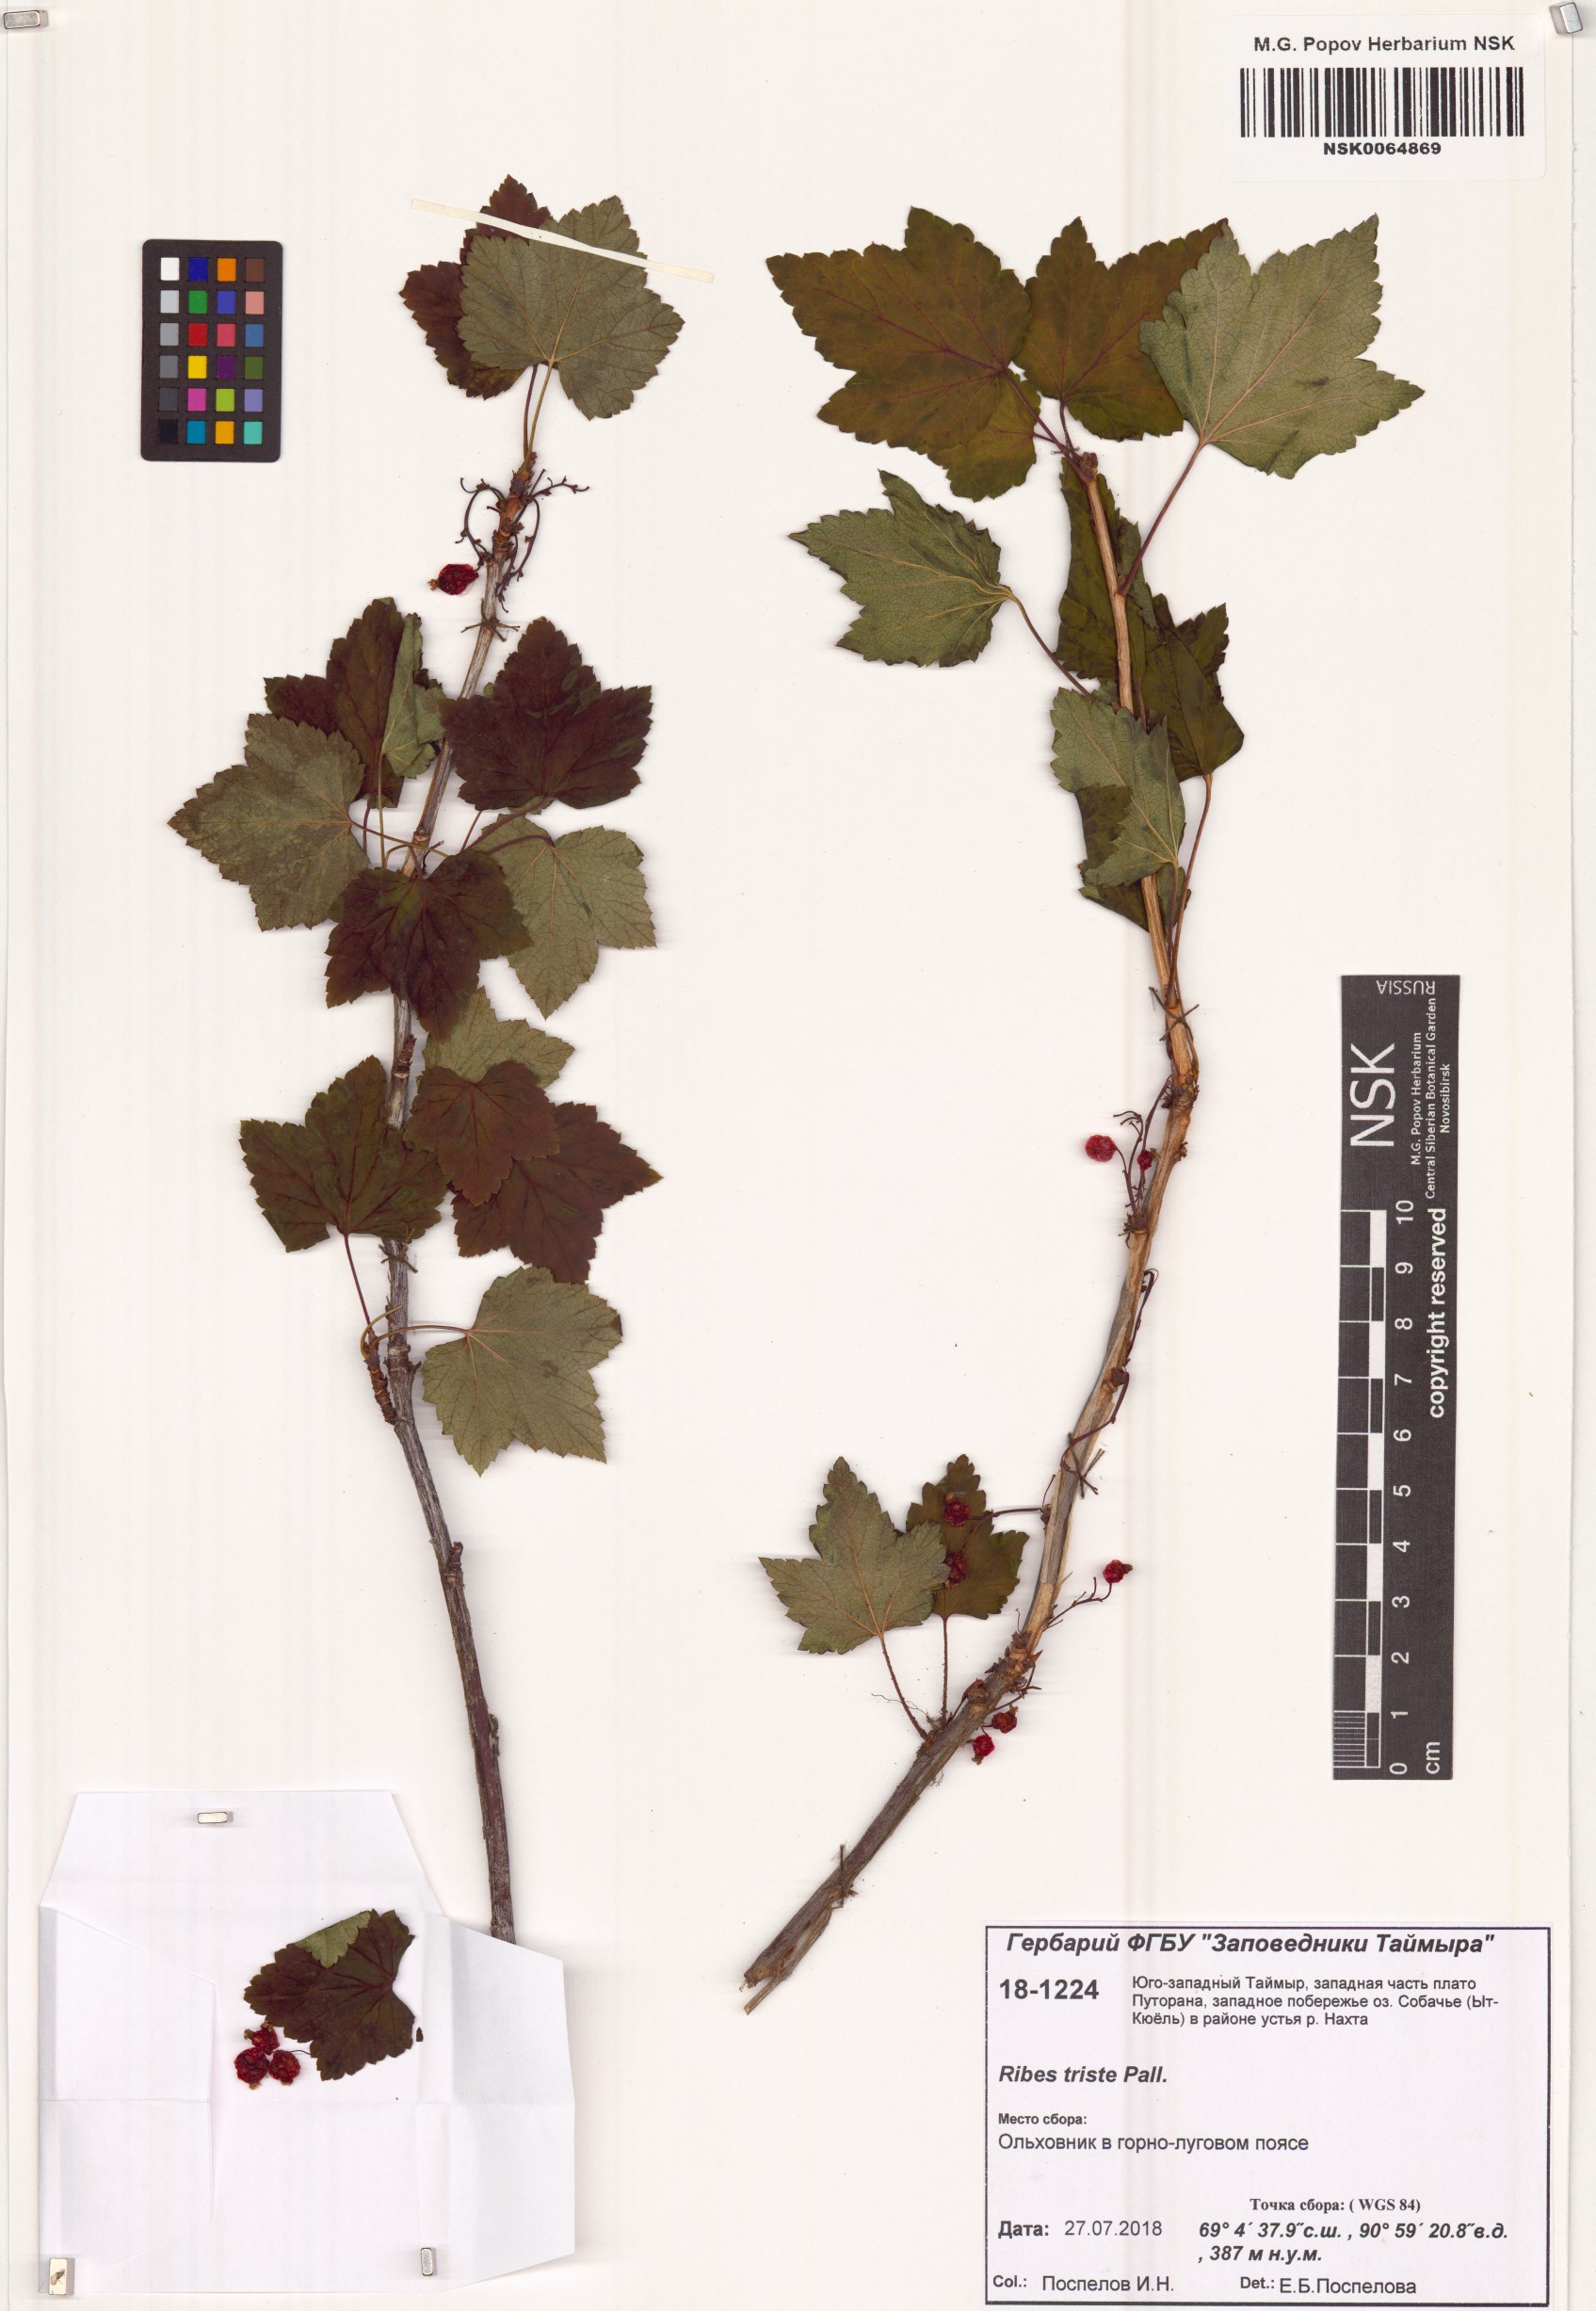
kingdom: Plantae
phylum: Tracheophyta
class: Magnoliopsida
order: Saxifragales
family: Grossulariaceae
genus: Ribes
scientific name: Ribes triste
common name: Swamp red currant
